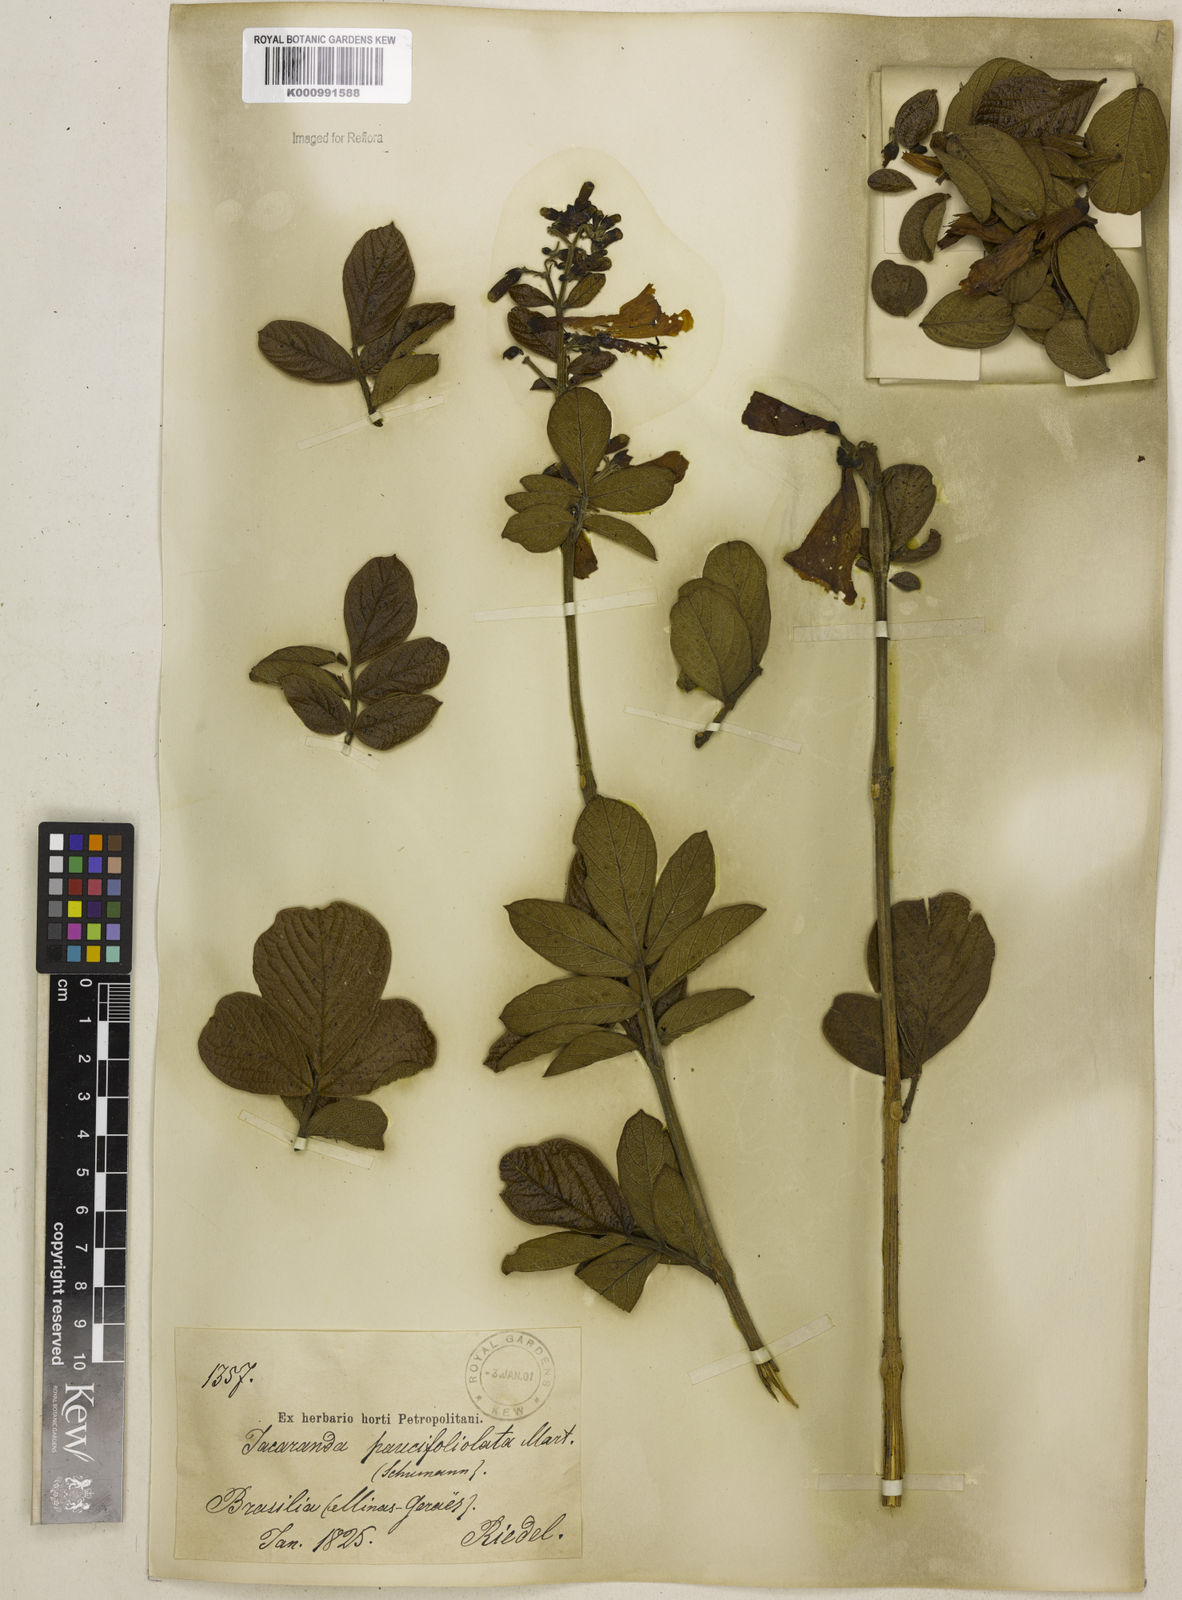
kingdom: Plantae
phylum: Tracheophyta
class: Magnoliopsida
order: Lamiales
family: Bignoniaceae
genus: Jacaranda
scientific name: Jacaranda
